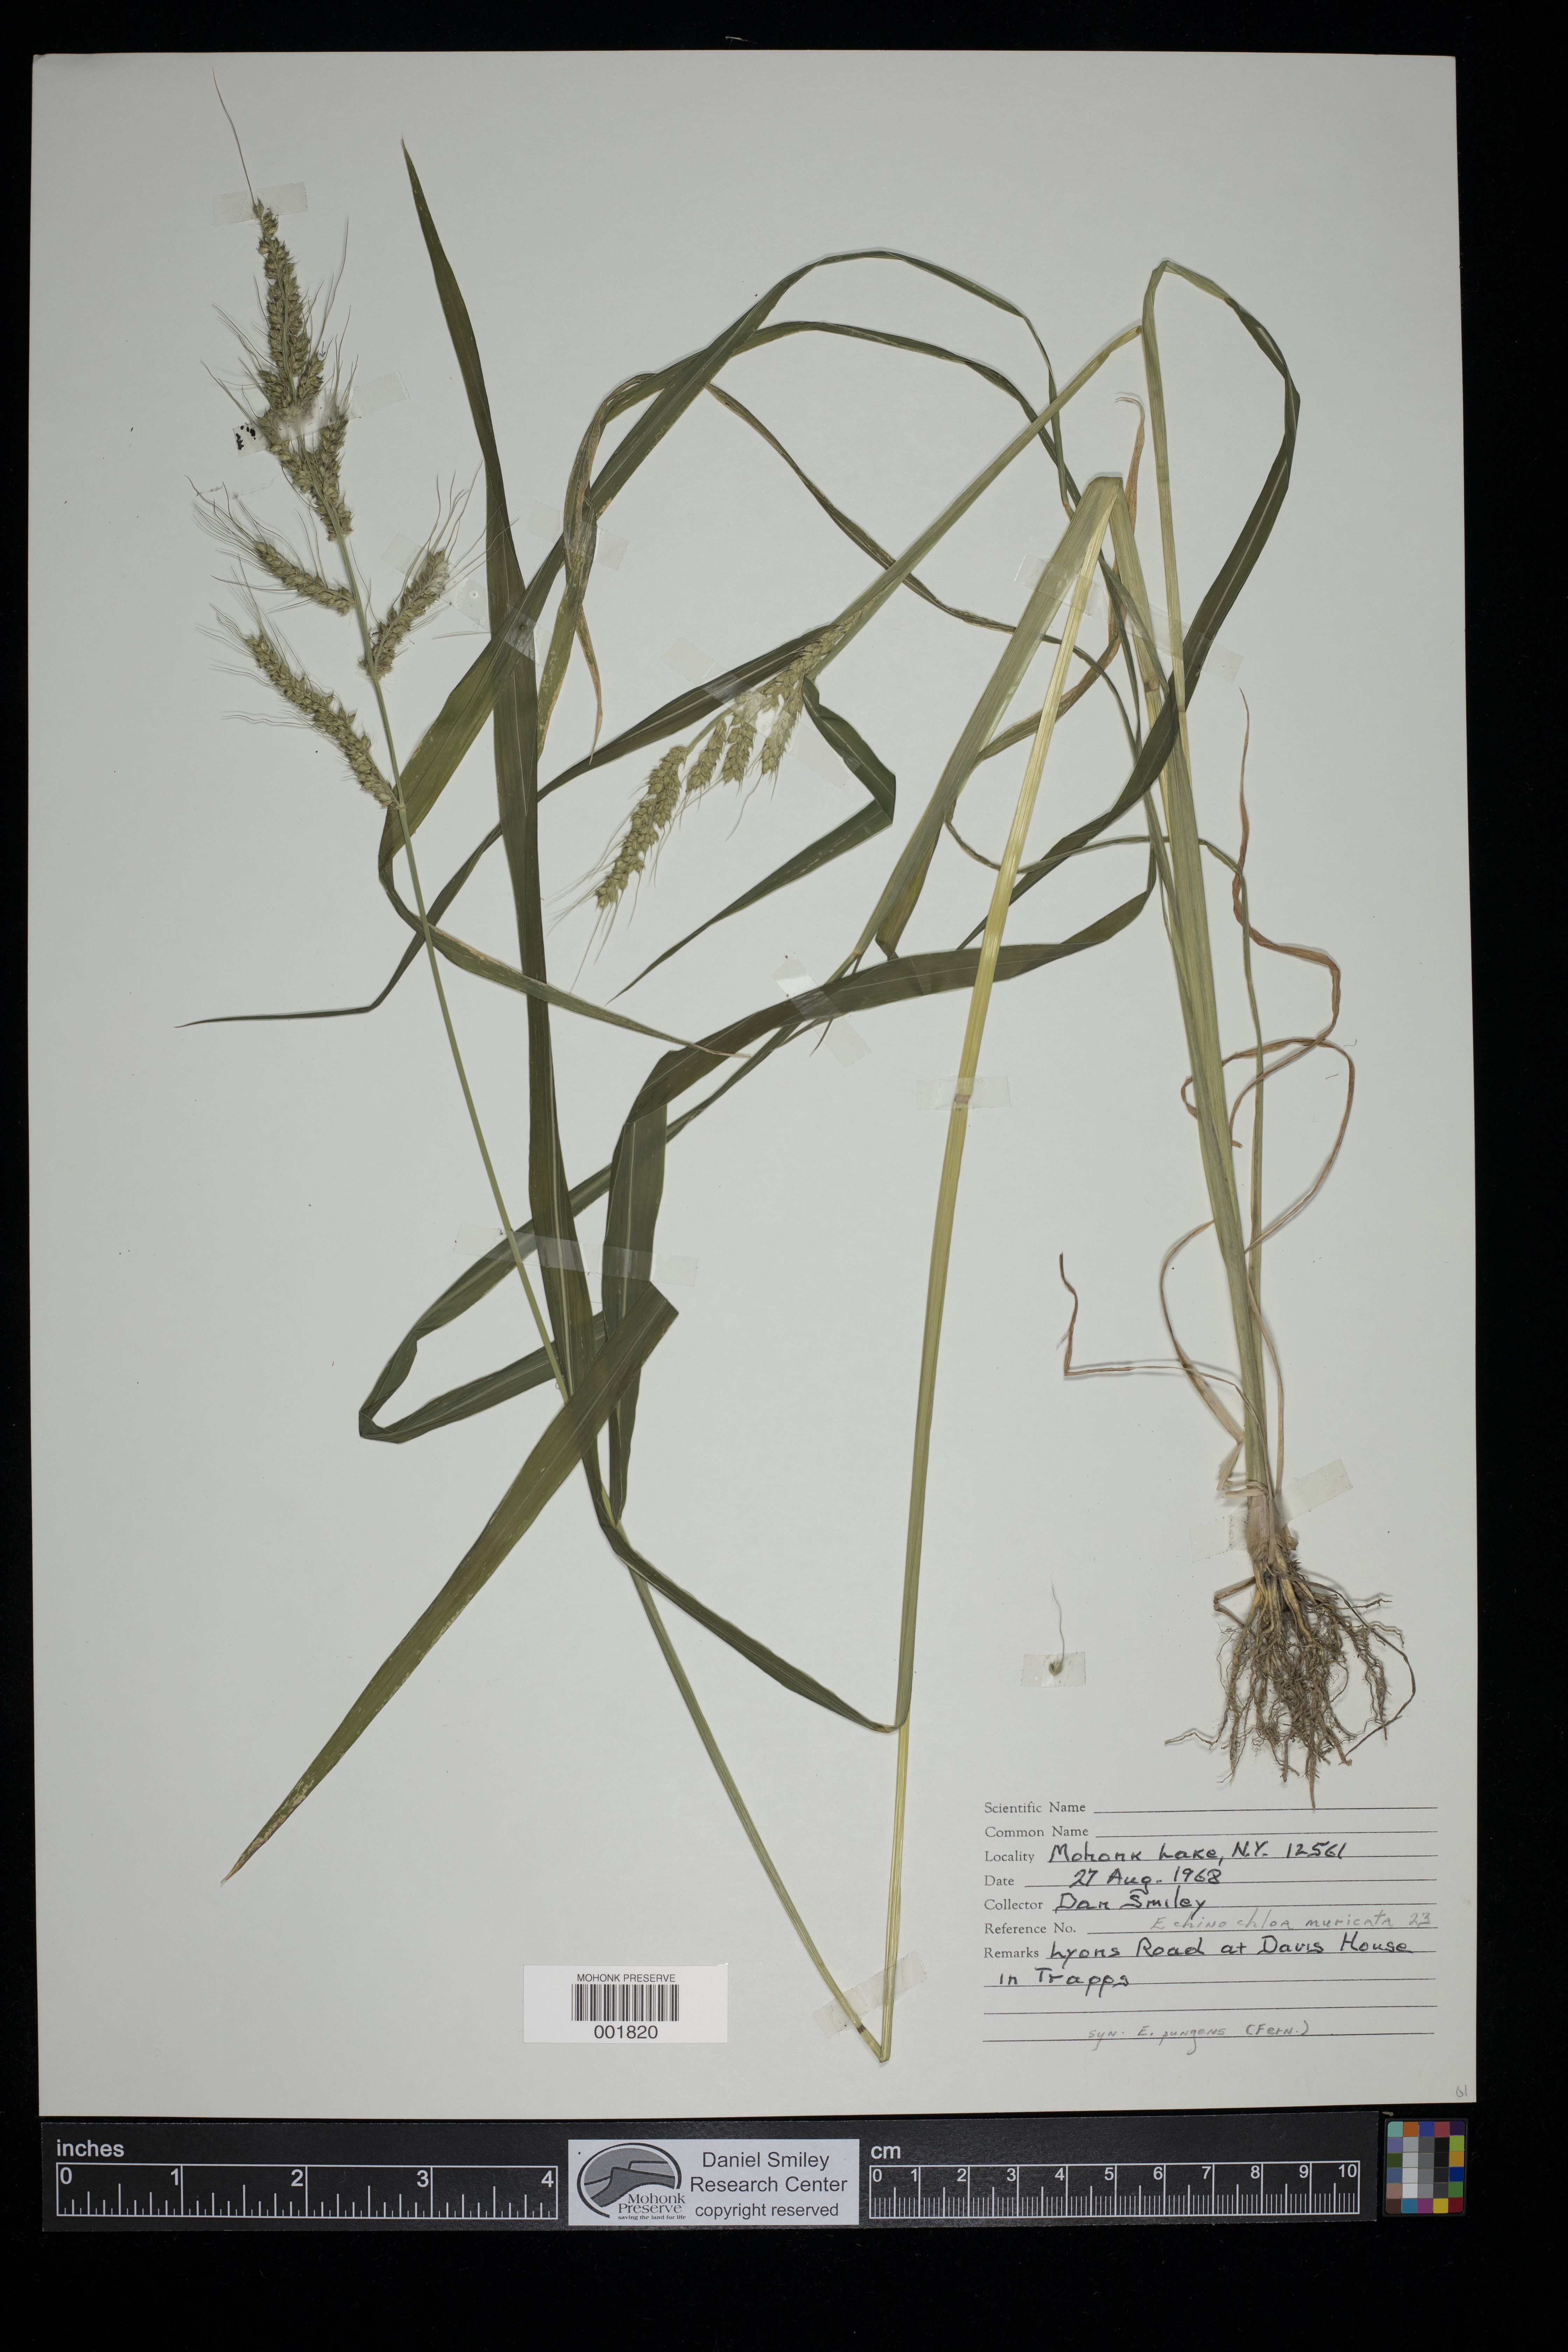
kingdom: Plantae
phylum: Tracheophyta
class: Liliopsida
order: Poales
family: Poaceae
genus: Echinochloa
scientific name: Echinochloa muricata
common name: American barnyard grass
